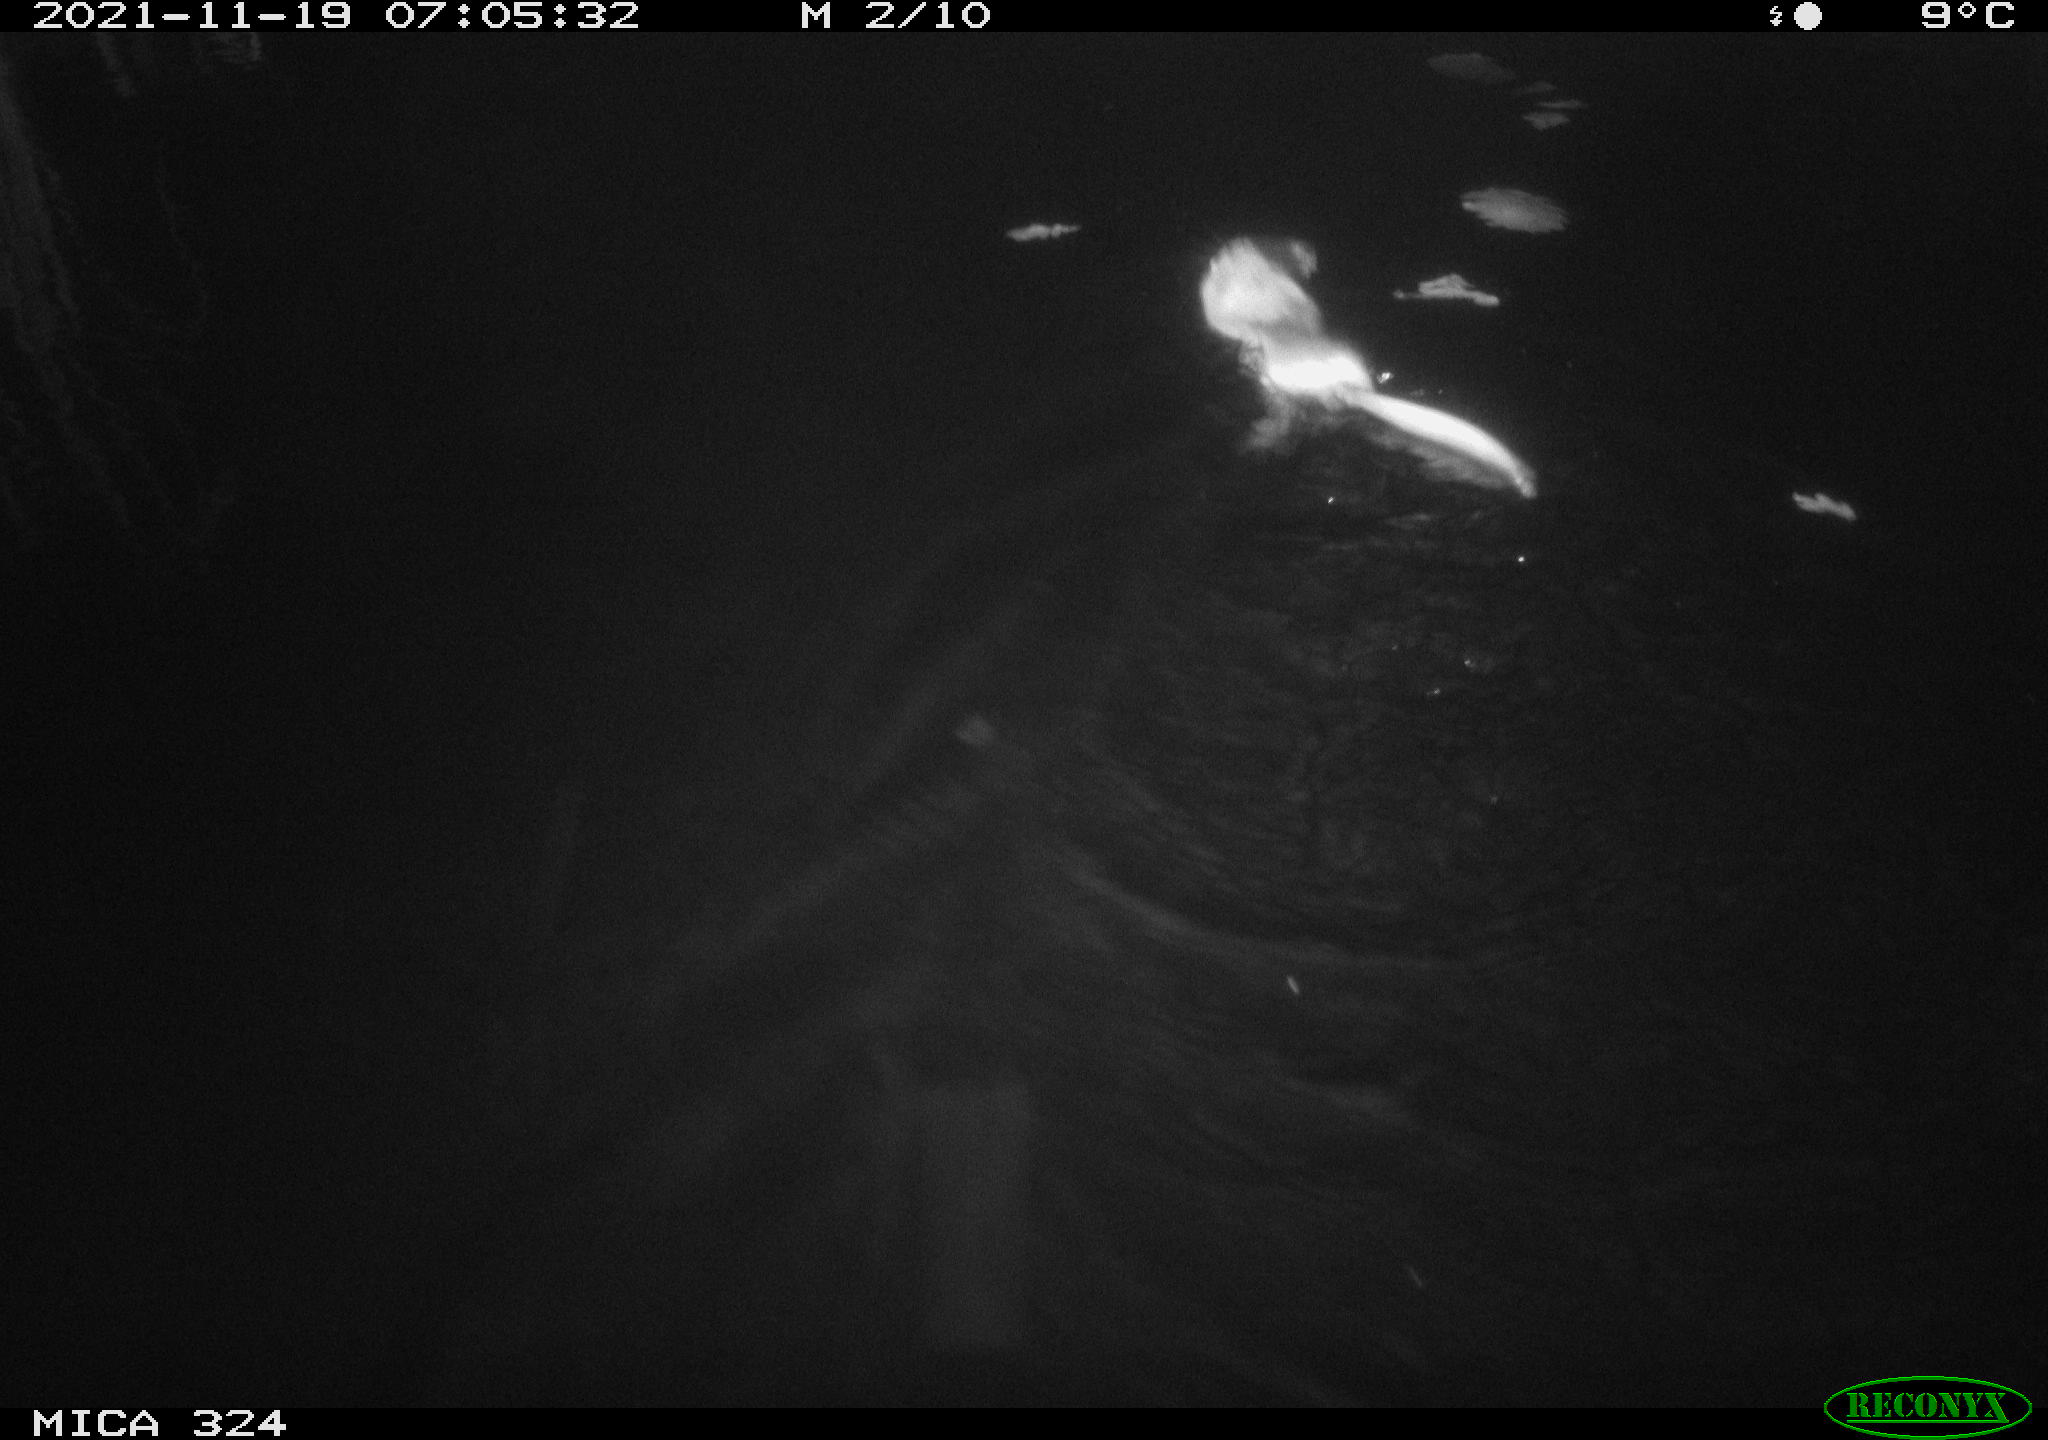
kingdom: Animalia
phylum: Chordata
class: Mammalia
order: Rodentia
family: Cricetidae
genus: Ondatra
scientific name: Ondatra zibethicus
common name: Muskrat
